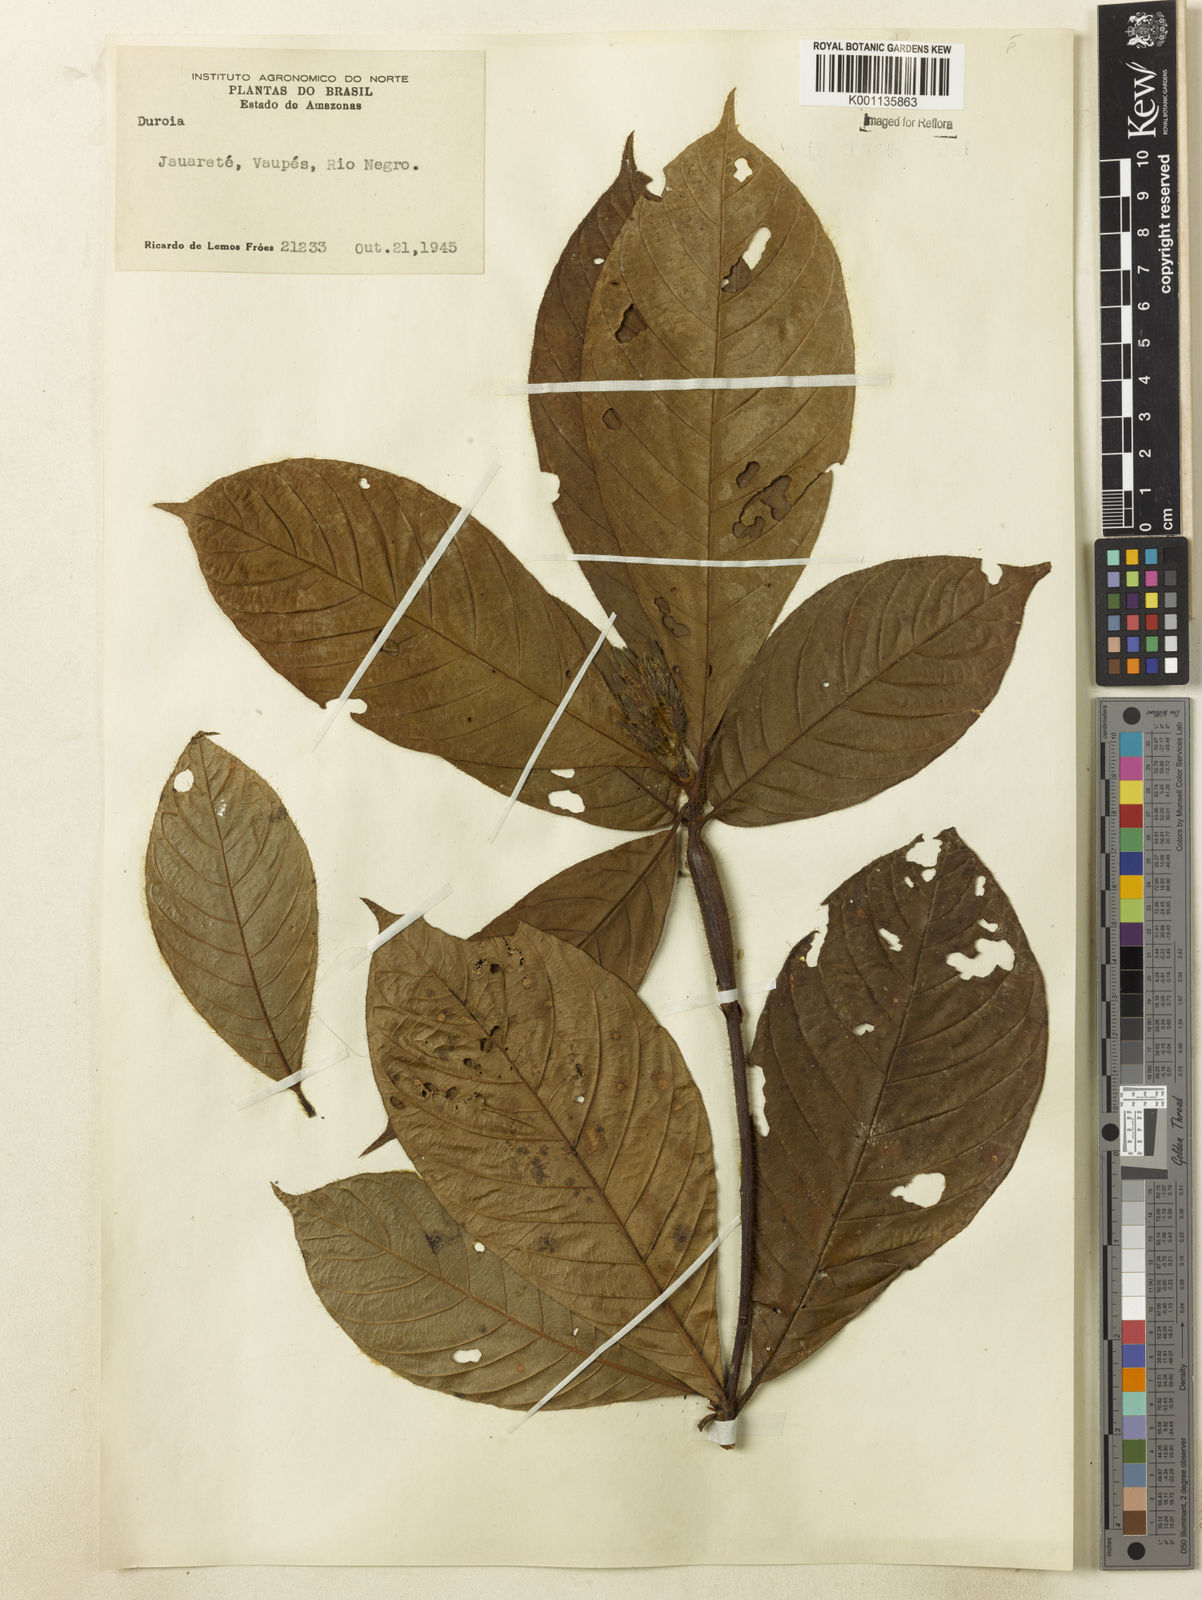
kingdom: Plantae
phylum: Tracheophyta
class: Magnoliopsida
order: Gentianales
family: Rubiaceae
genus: Duroia
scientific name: Duroia
